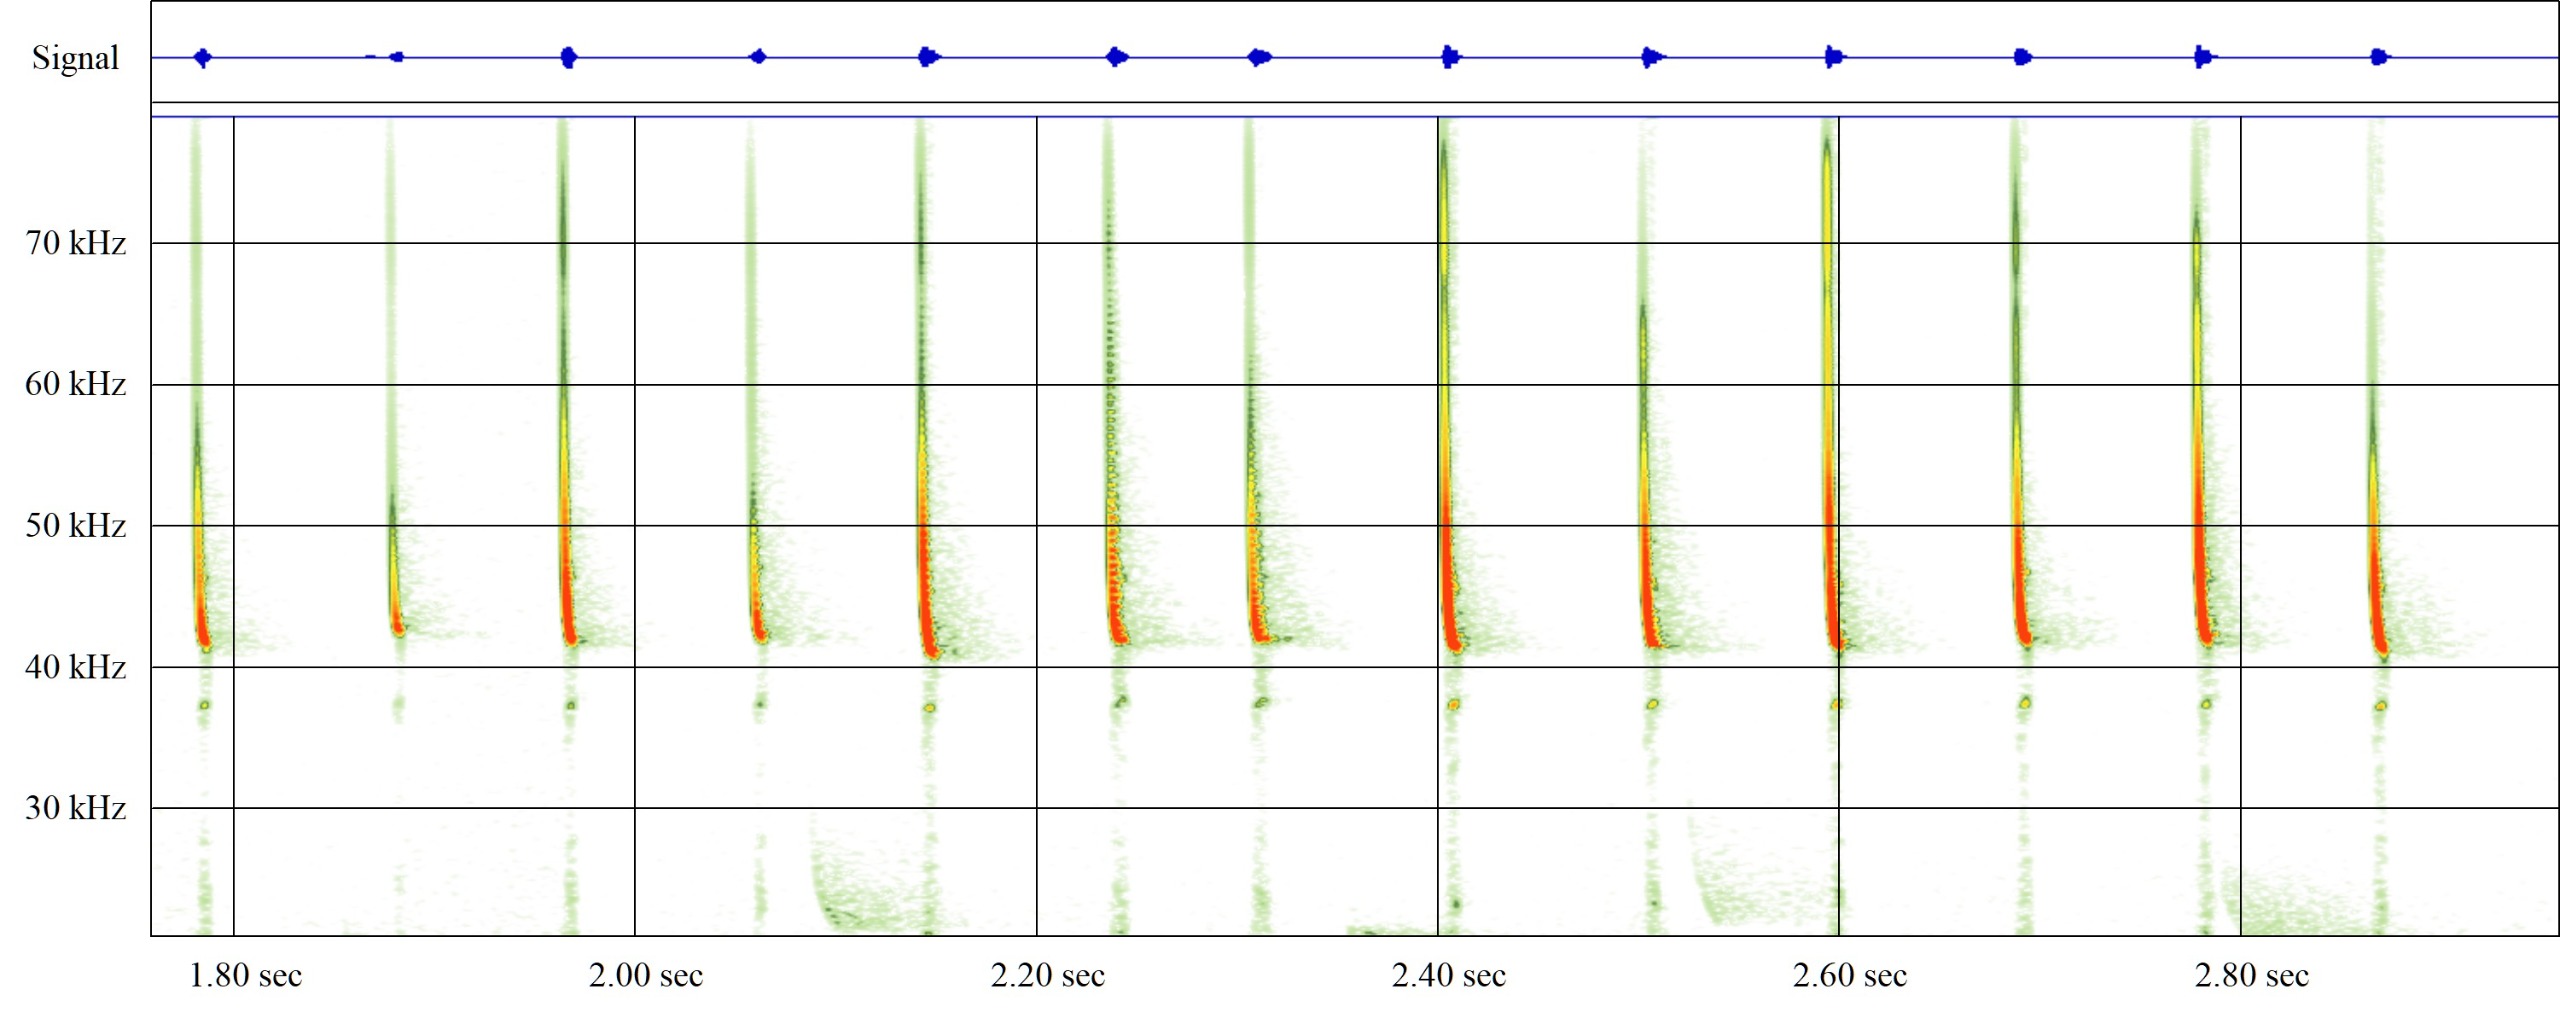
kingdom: Animalia
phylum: Chordata
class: Mammalia
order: Chiroptera
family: Vespertilionidae
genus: Pipistrellus
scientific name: Pipistrellus nathusii
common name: Troldflagermus
